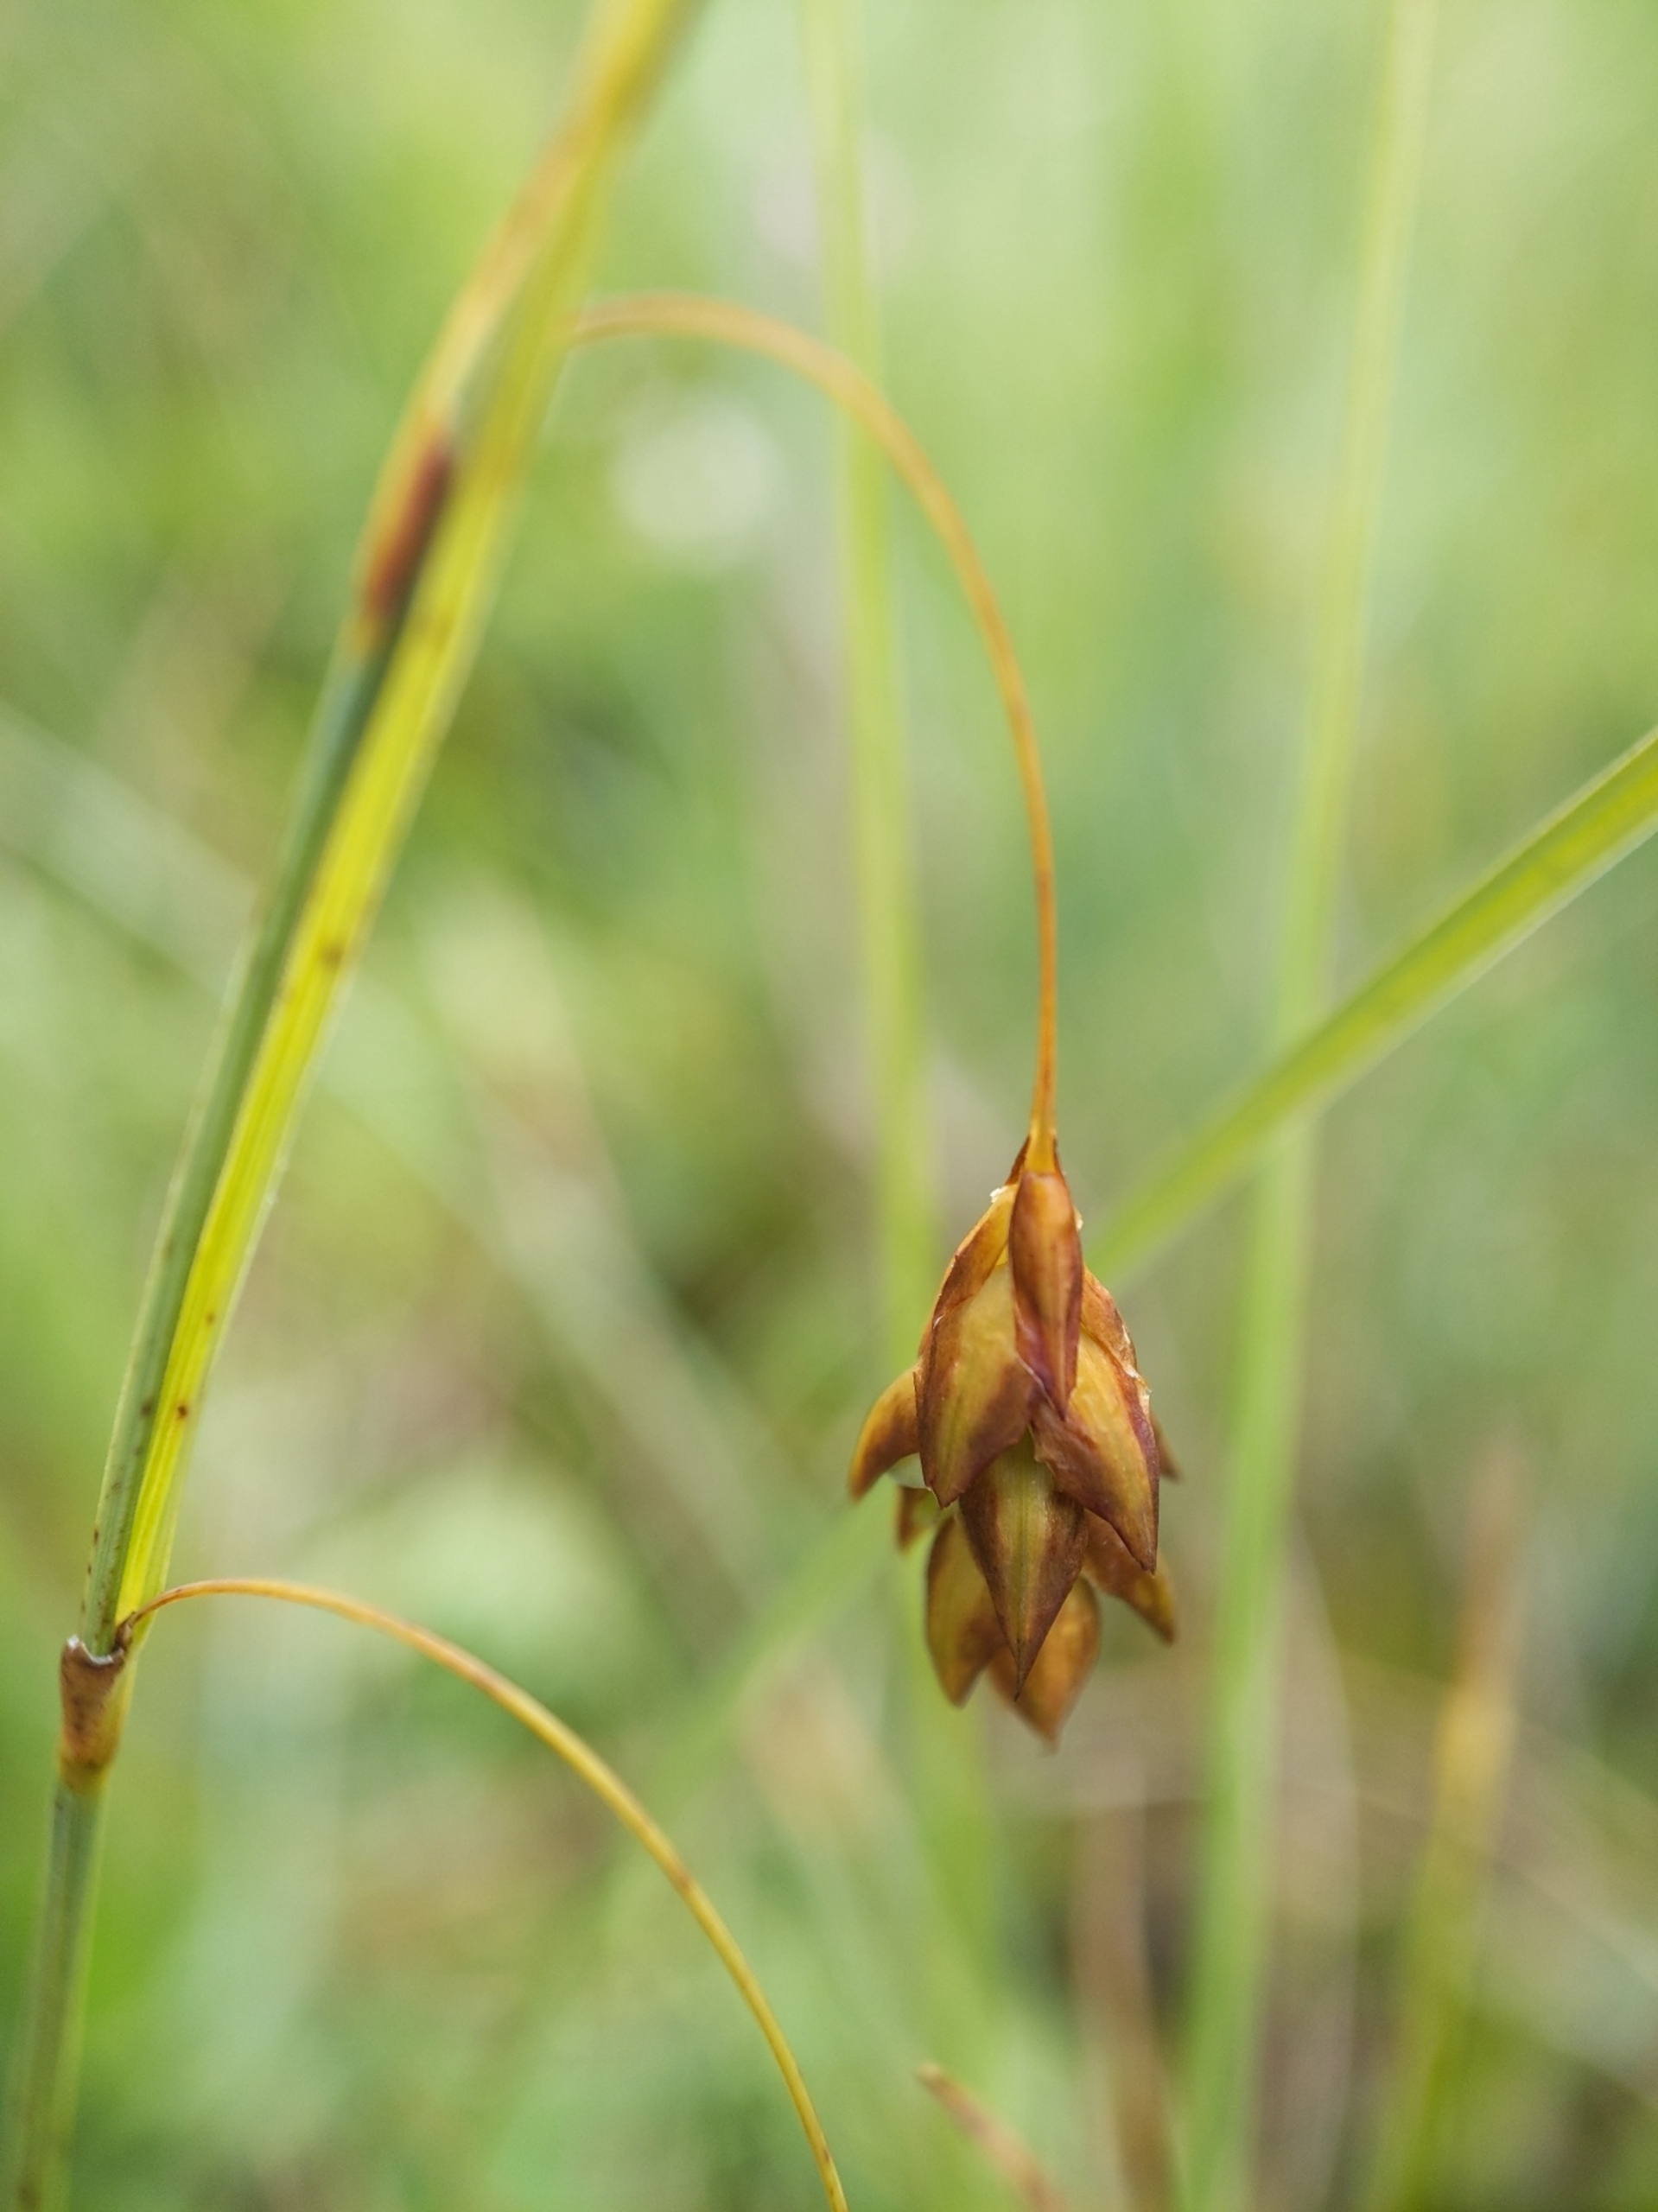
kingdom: Plantae
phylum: Tracheophyta
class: Liliopsida
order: Poales
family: Cyperaceae
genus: Carex
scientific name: Carex limosa
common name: Dynd-star
